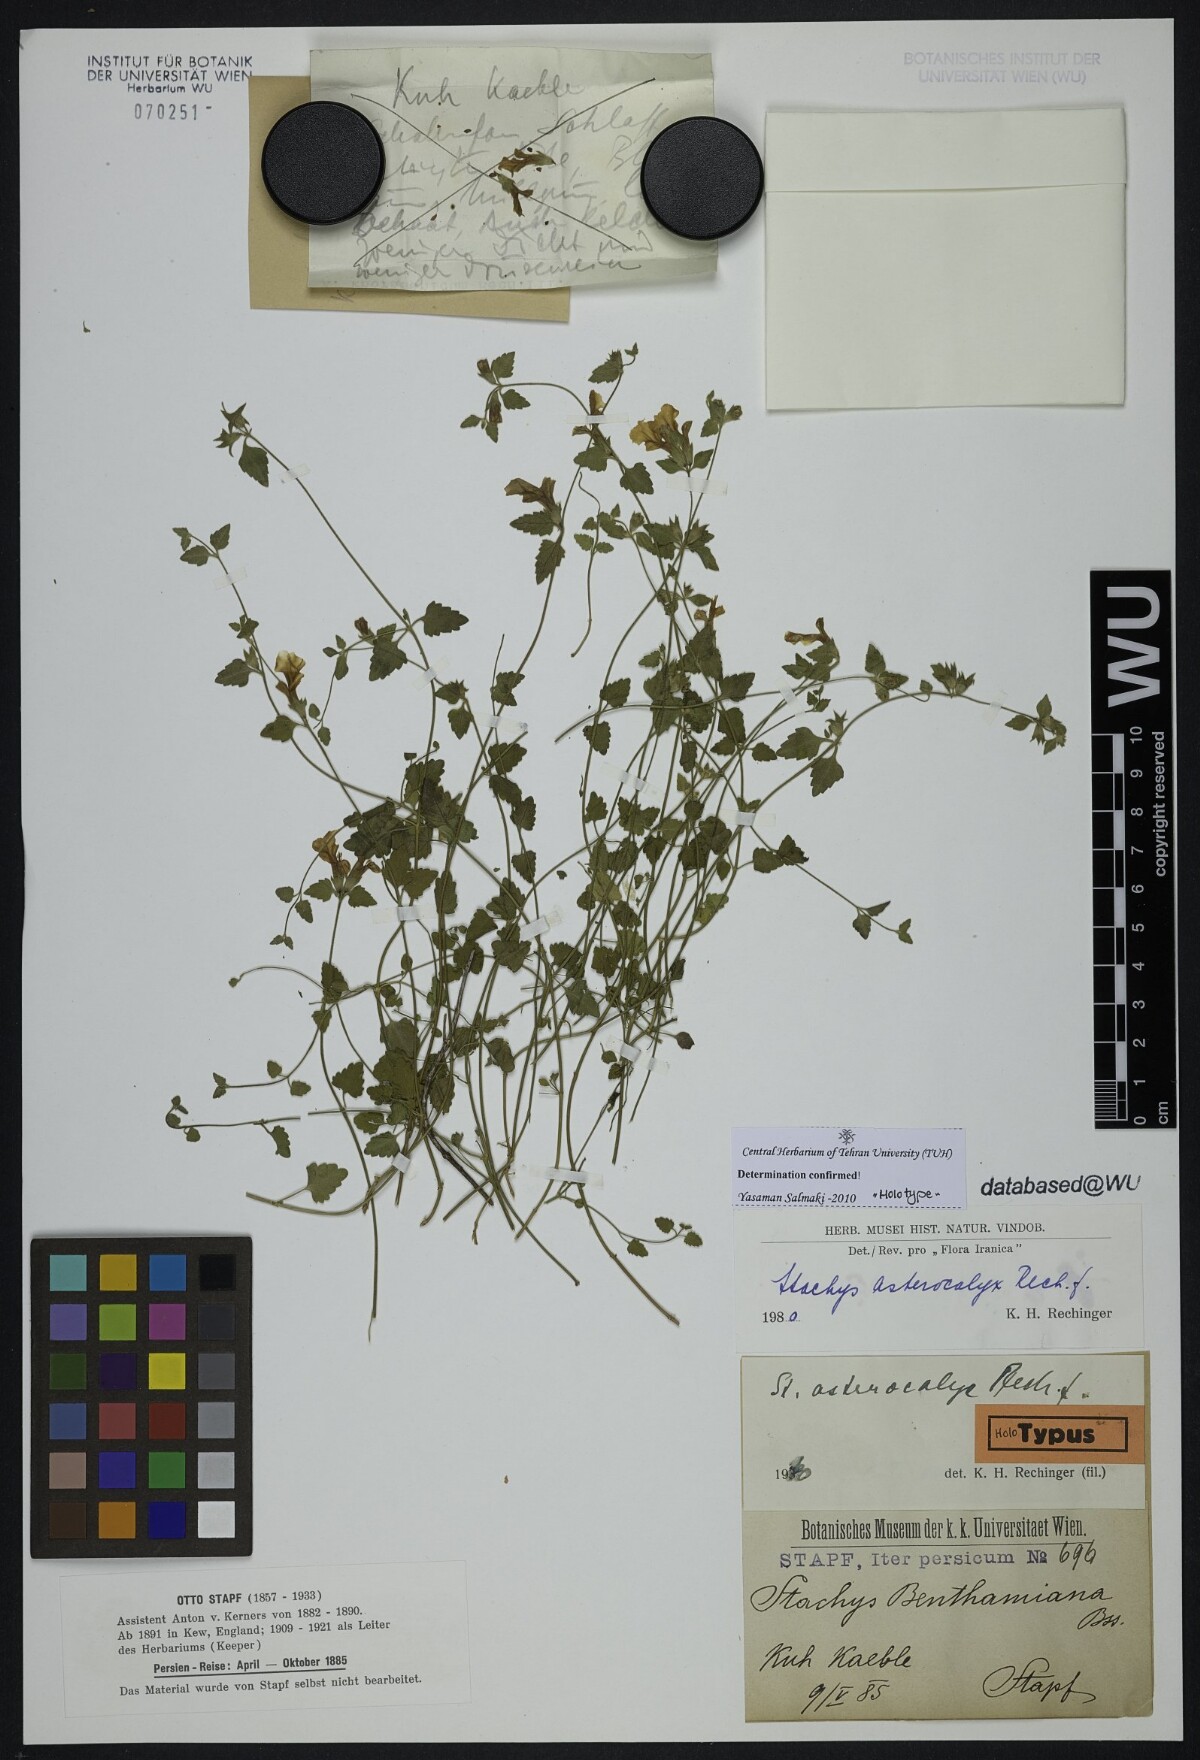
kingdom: Plantae
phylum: Tracheophyta
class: Magnoliopsida
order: Lamiales
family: Lamiaceae
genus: Stachys
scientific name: Stachys kurdica
